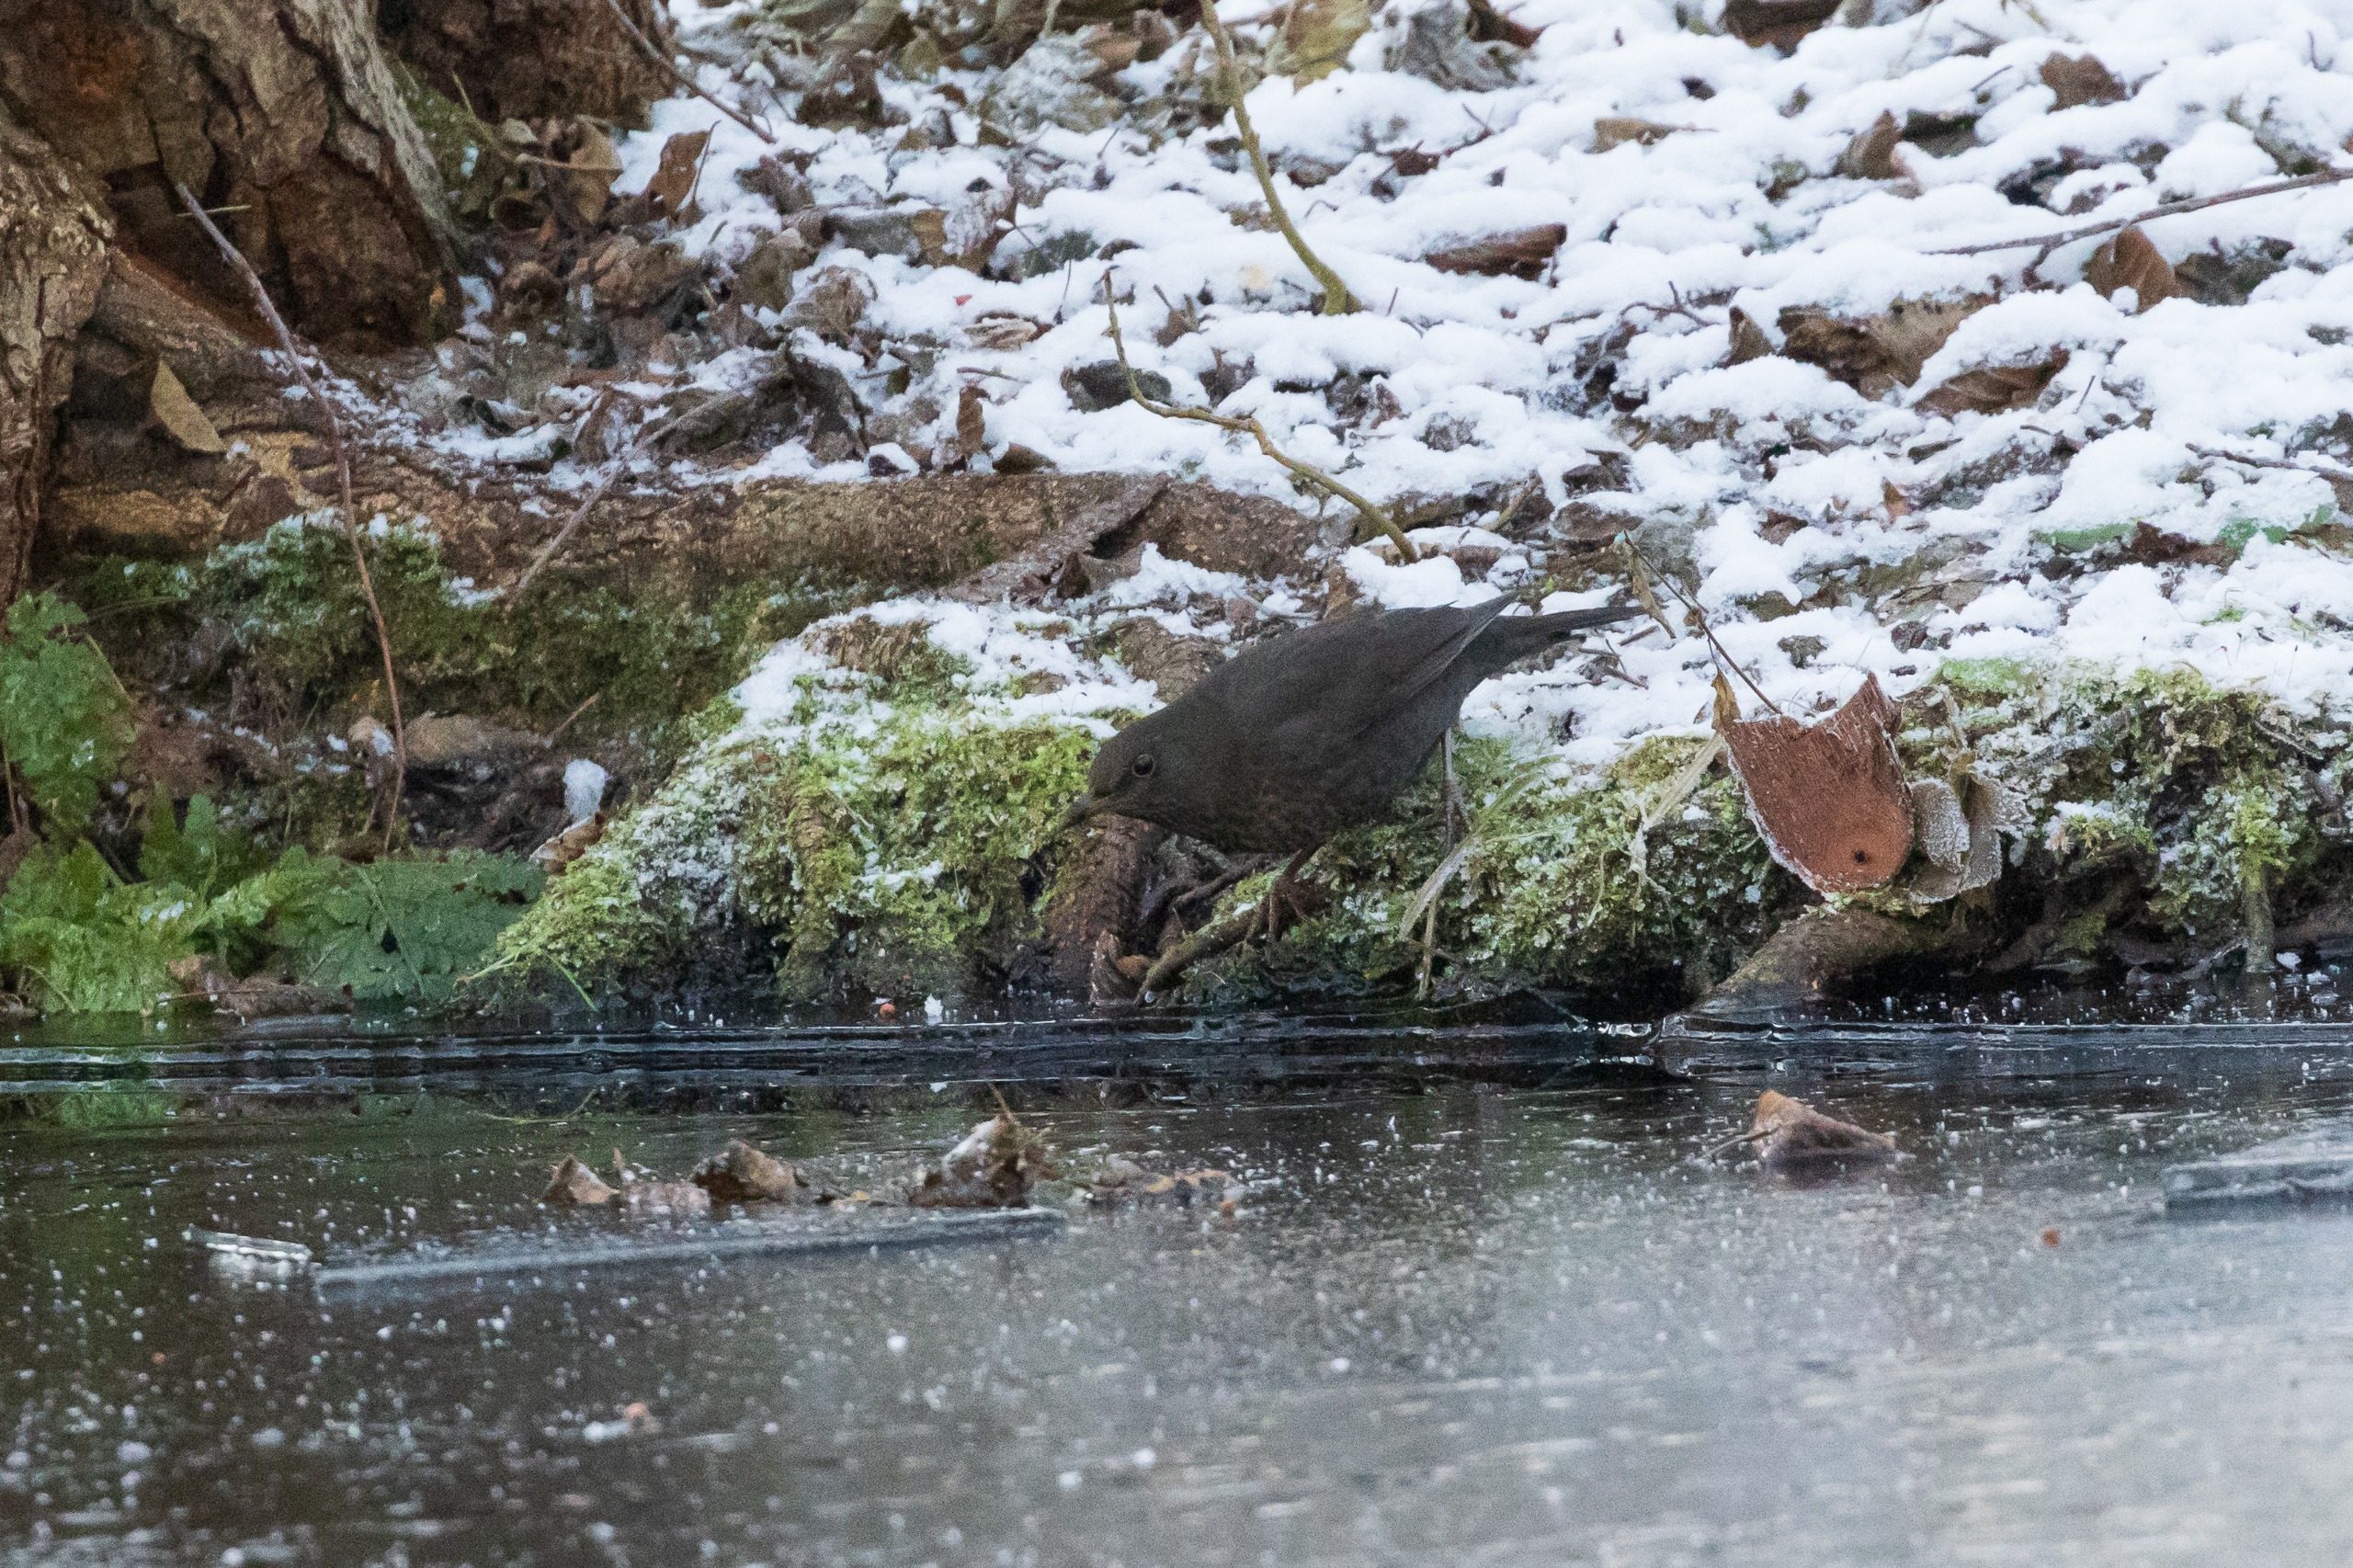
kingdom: Animalia
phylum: Chordata
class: Aves
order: Passeriformes
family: Turdidae
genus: Turdus
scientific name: Turdus merula
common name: Solsort
